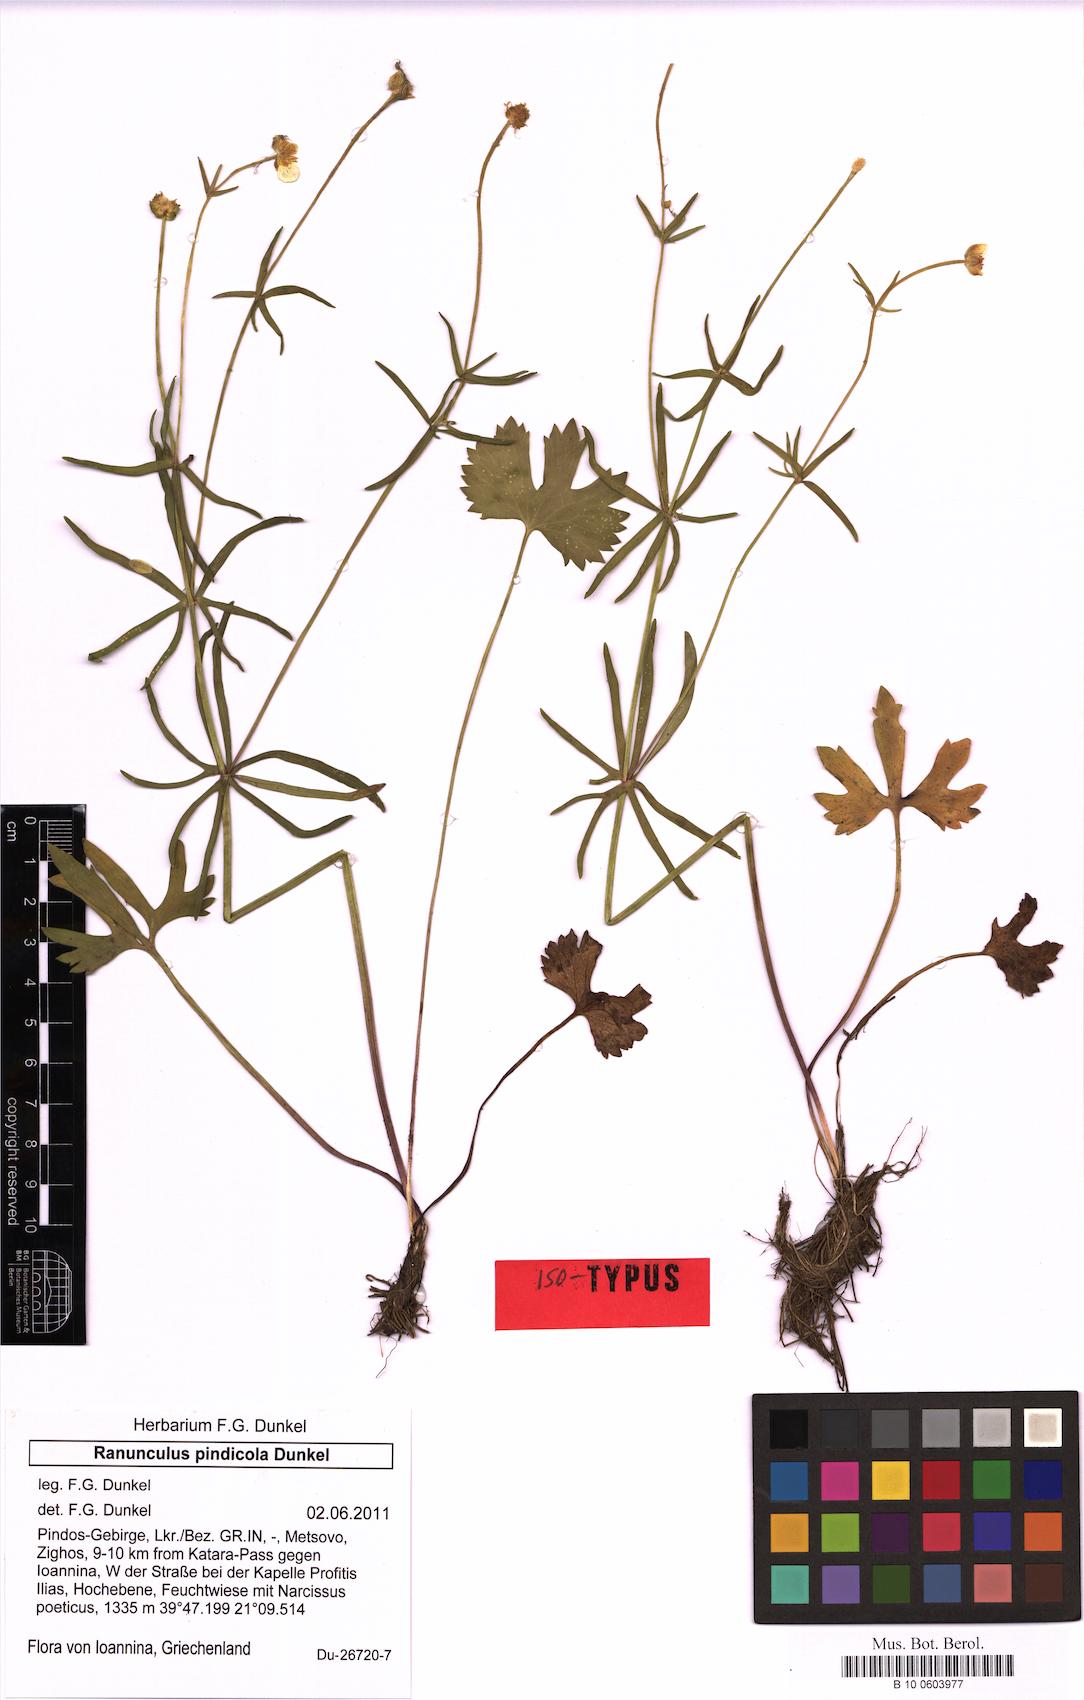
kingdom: Plantae
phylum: Tracheophyta
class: Magnoliopsida
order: Ranunculales
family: Ranunculaceae
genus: Ranunculus
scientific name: Ranunculus pindicola
